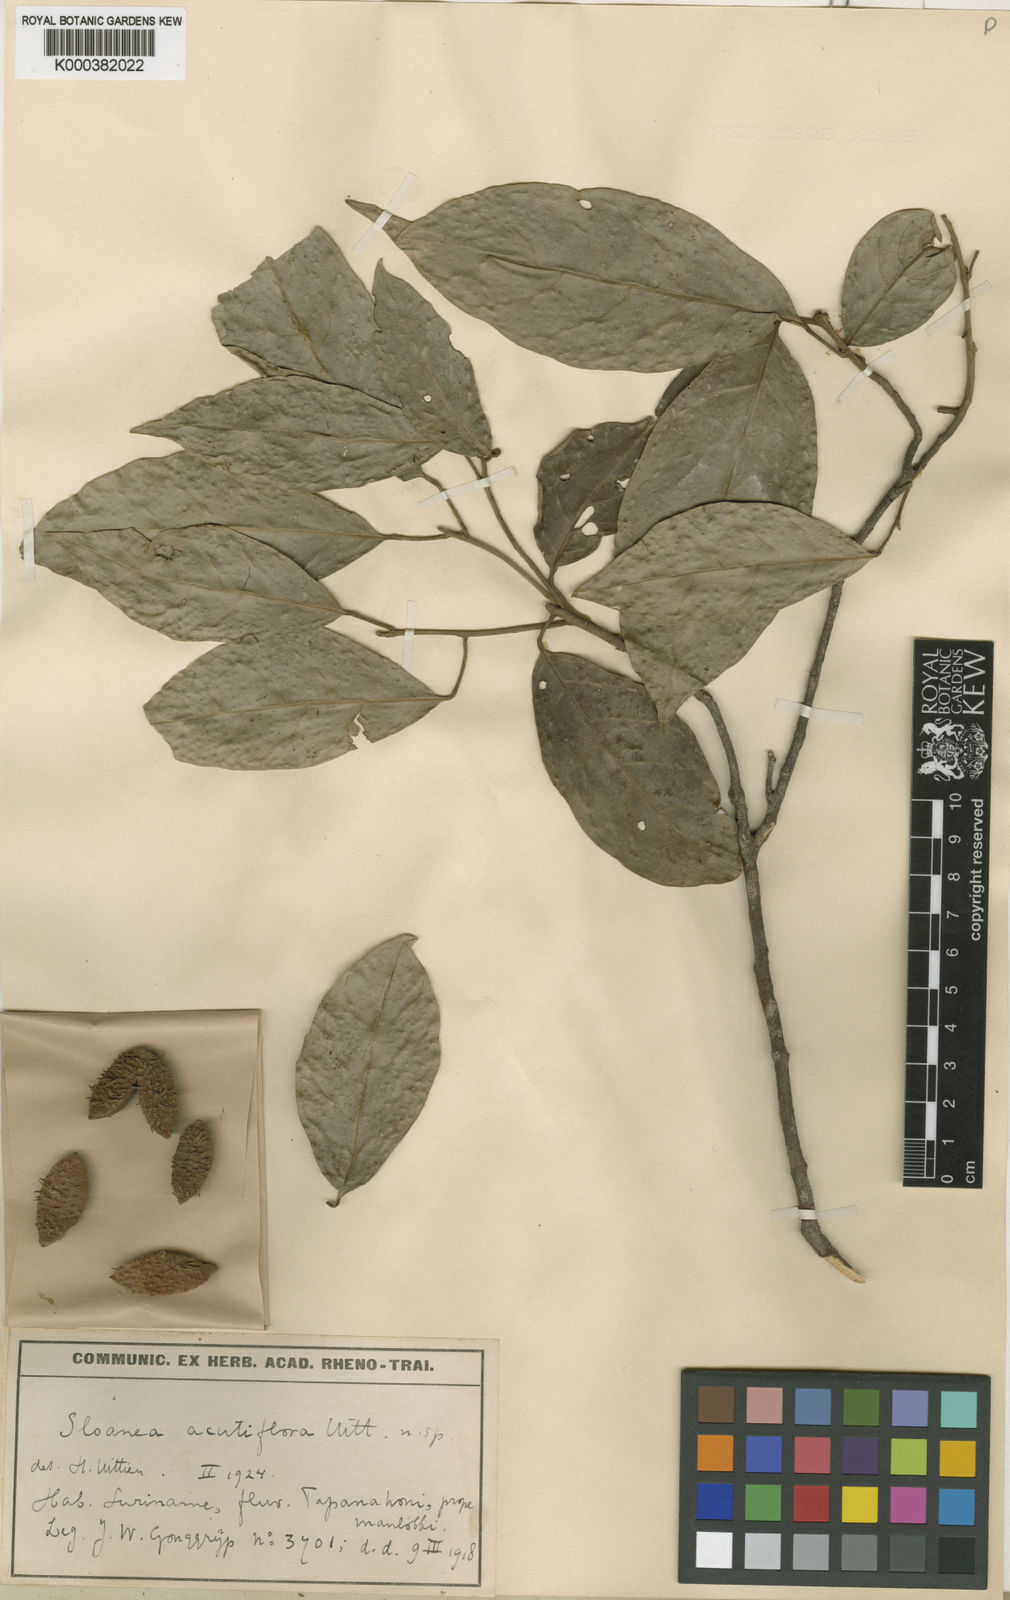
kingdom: Plantae
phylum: Tracheophyta
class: Magnoliopsida
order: Oxalidales
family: Elaeocarpaceae
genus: Sloanea
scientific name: Sloanea laxiflora
